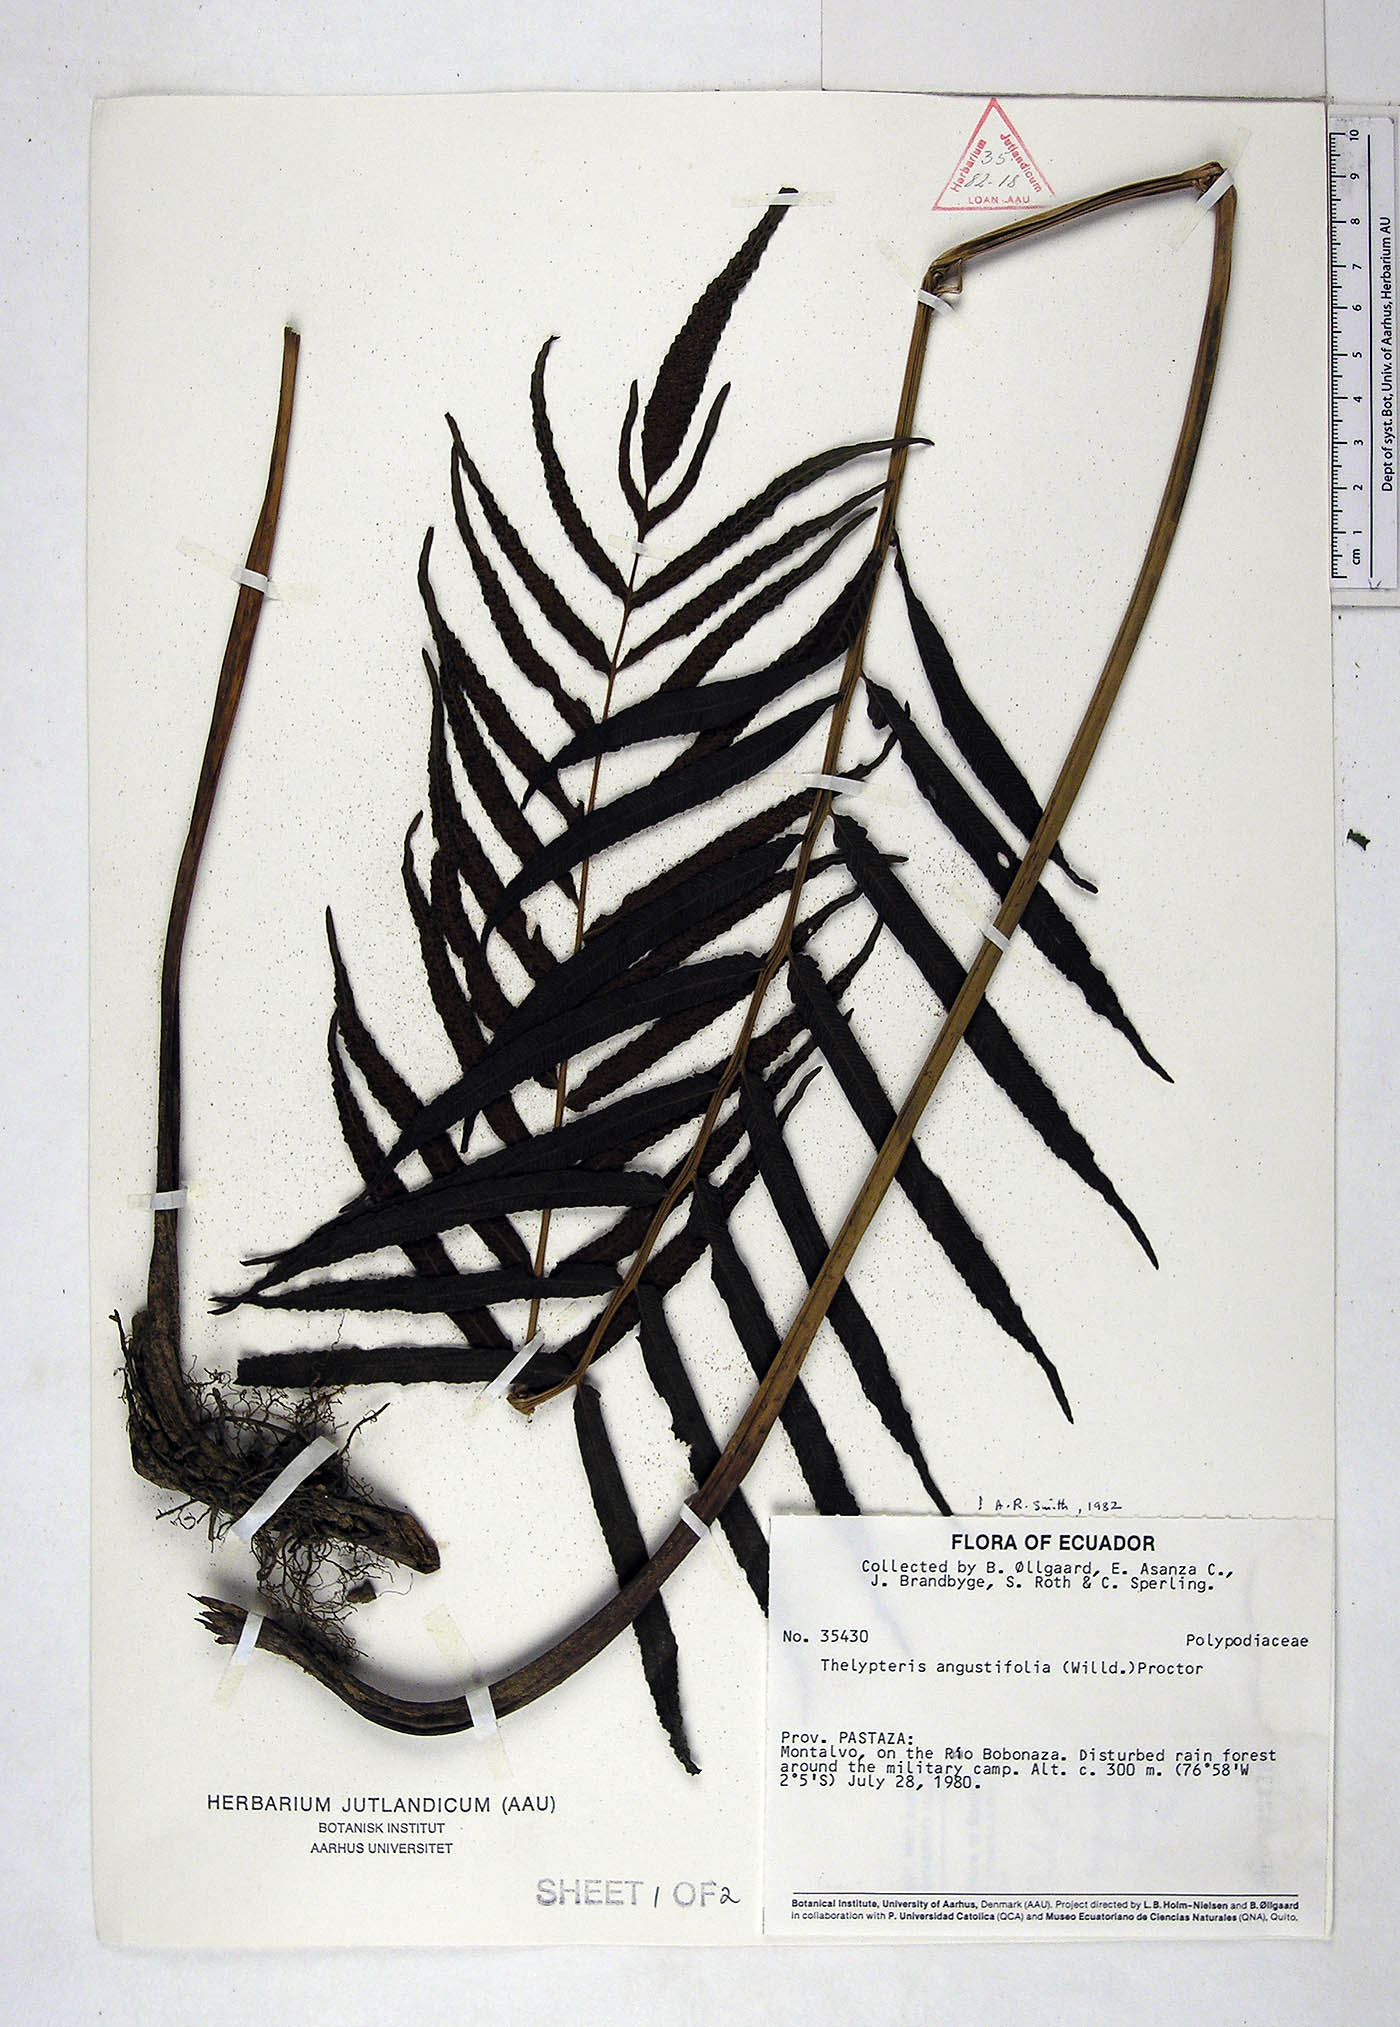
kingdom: Plantae
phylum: Tracheophyta
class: Polypodiopsida
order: Polypodiales
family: Thelypteridaceae
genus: Meniscium
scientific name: Meniscium angustifolium
